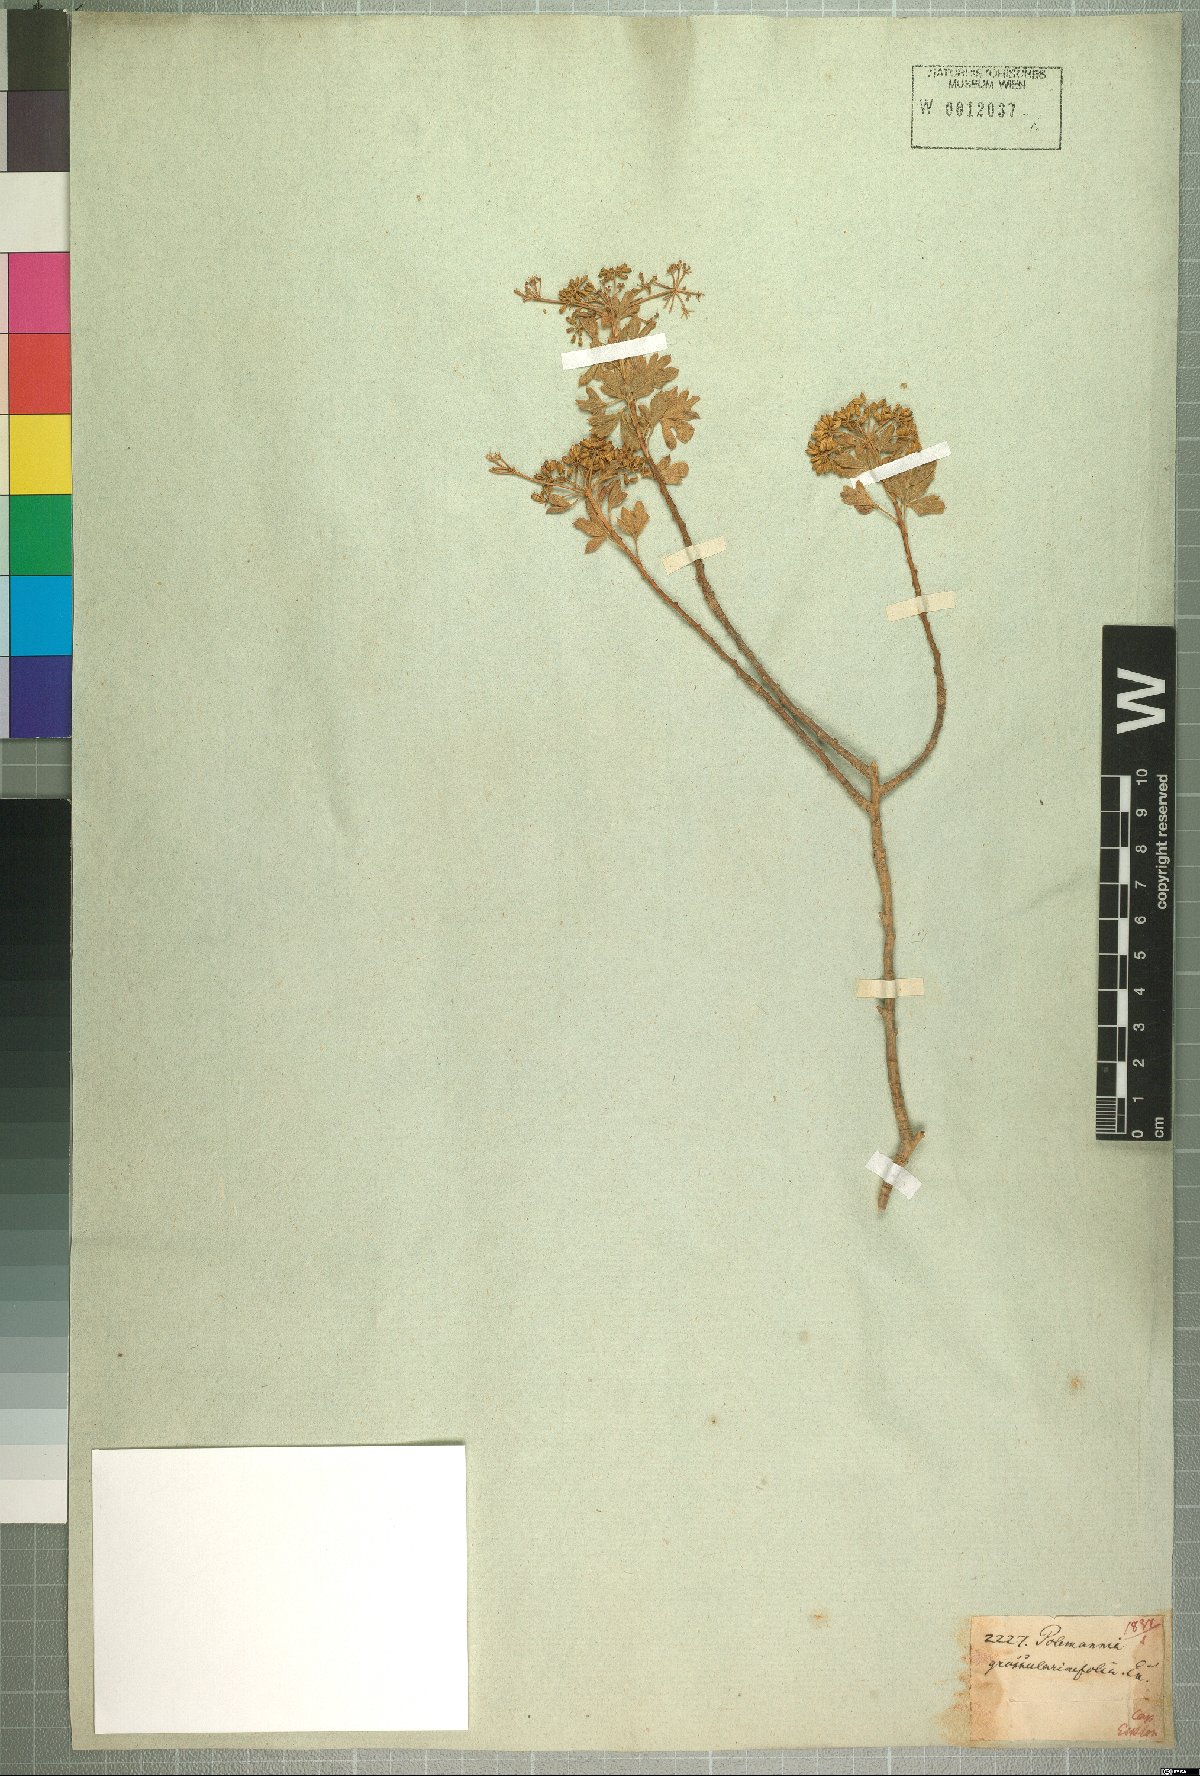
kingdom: Plantae
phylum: Tracheophyta
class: Magnoliopsida
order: Apiales
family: Apiaceae
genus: Polemannia
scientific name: Polemannia grossulariifolia
